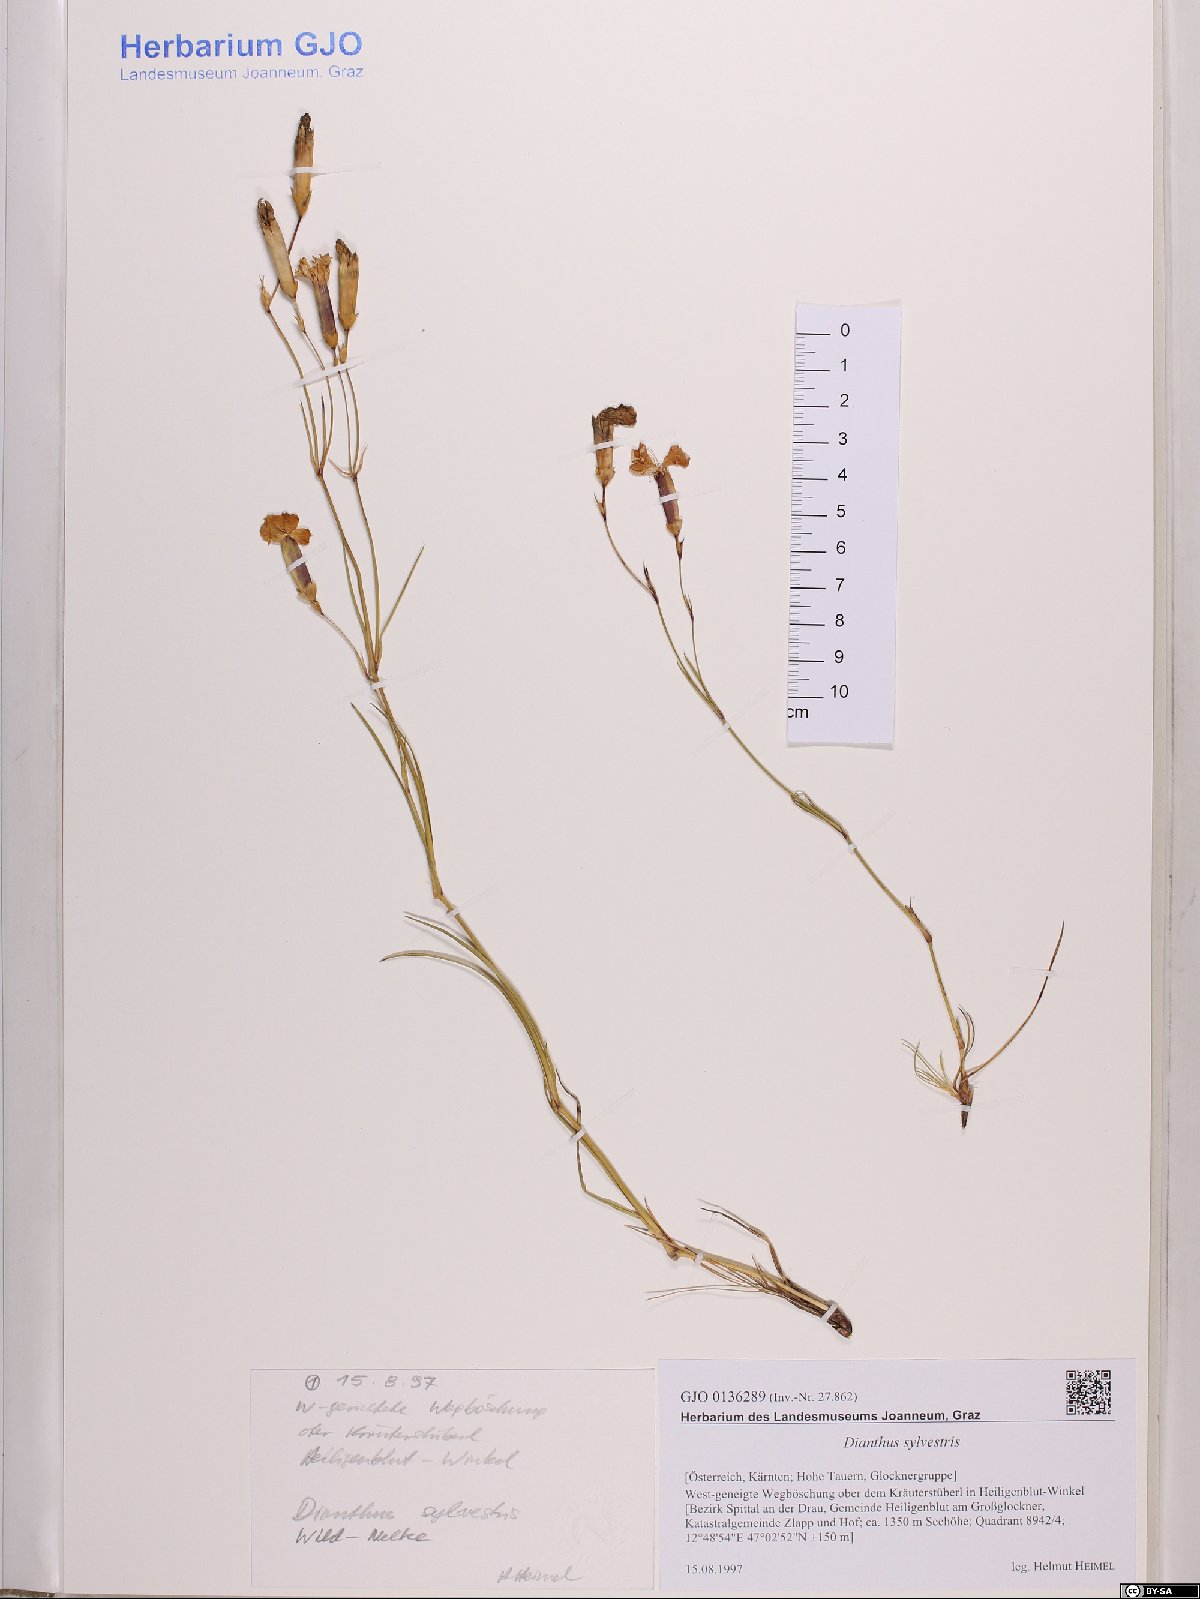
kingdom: Plantae
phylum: Tracheophyta
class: Magnoliopsida
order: Caryophyllales
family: Caryophyllaceae
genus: Dianthus
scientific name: Dianthus sylvestris
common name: Wood pink
